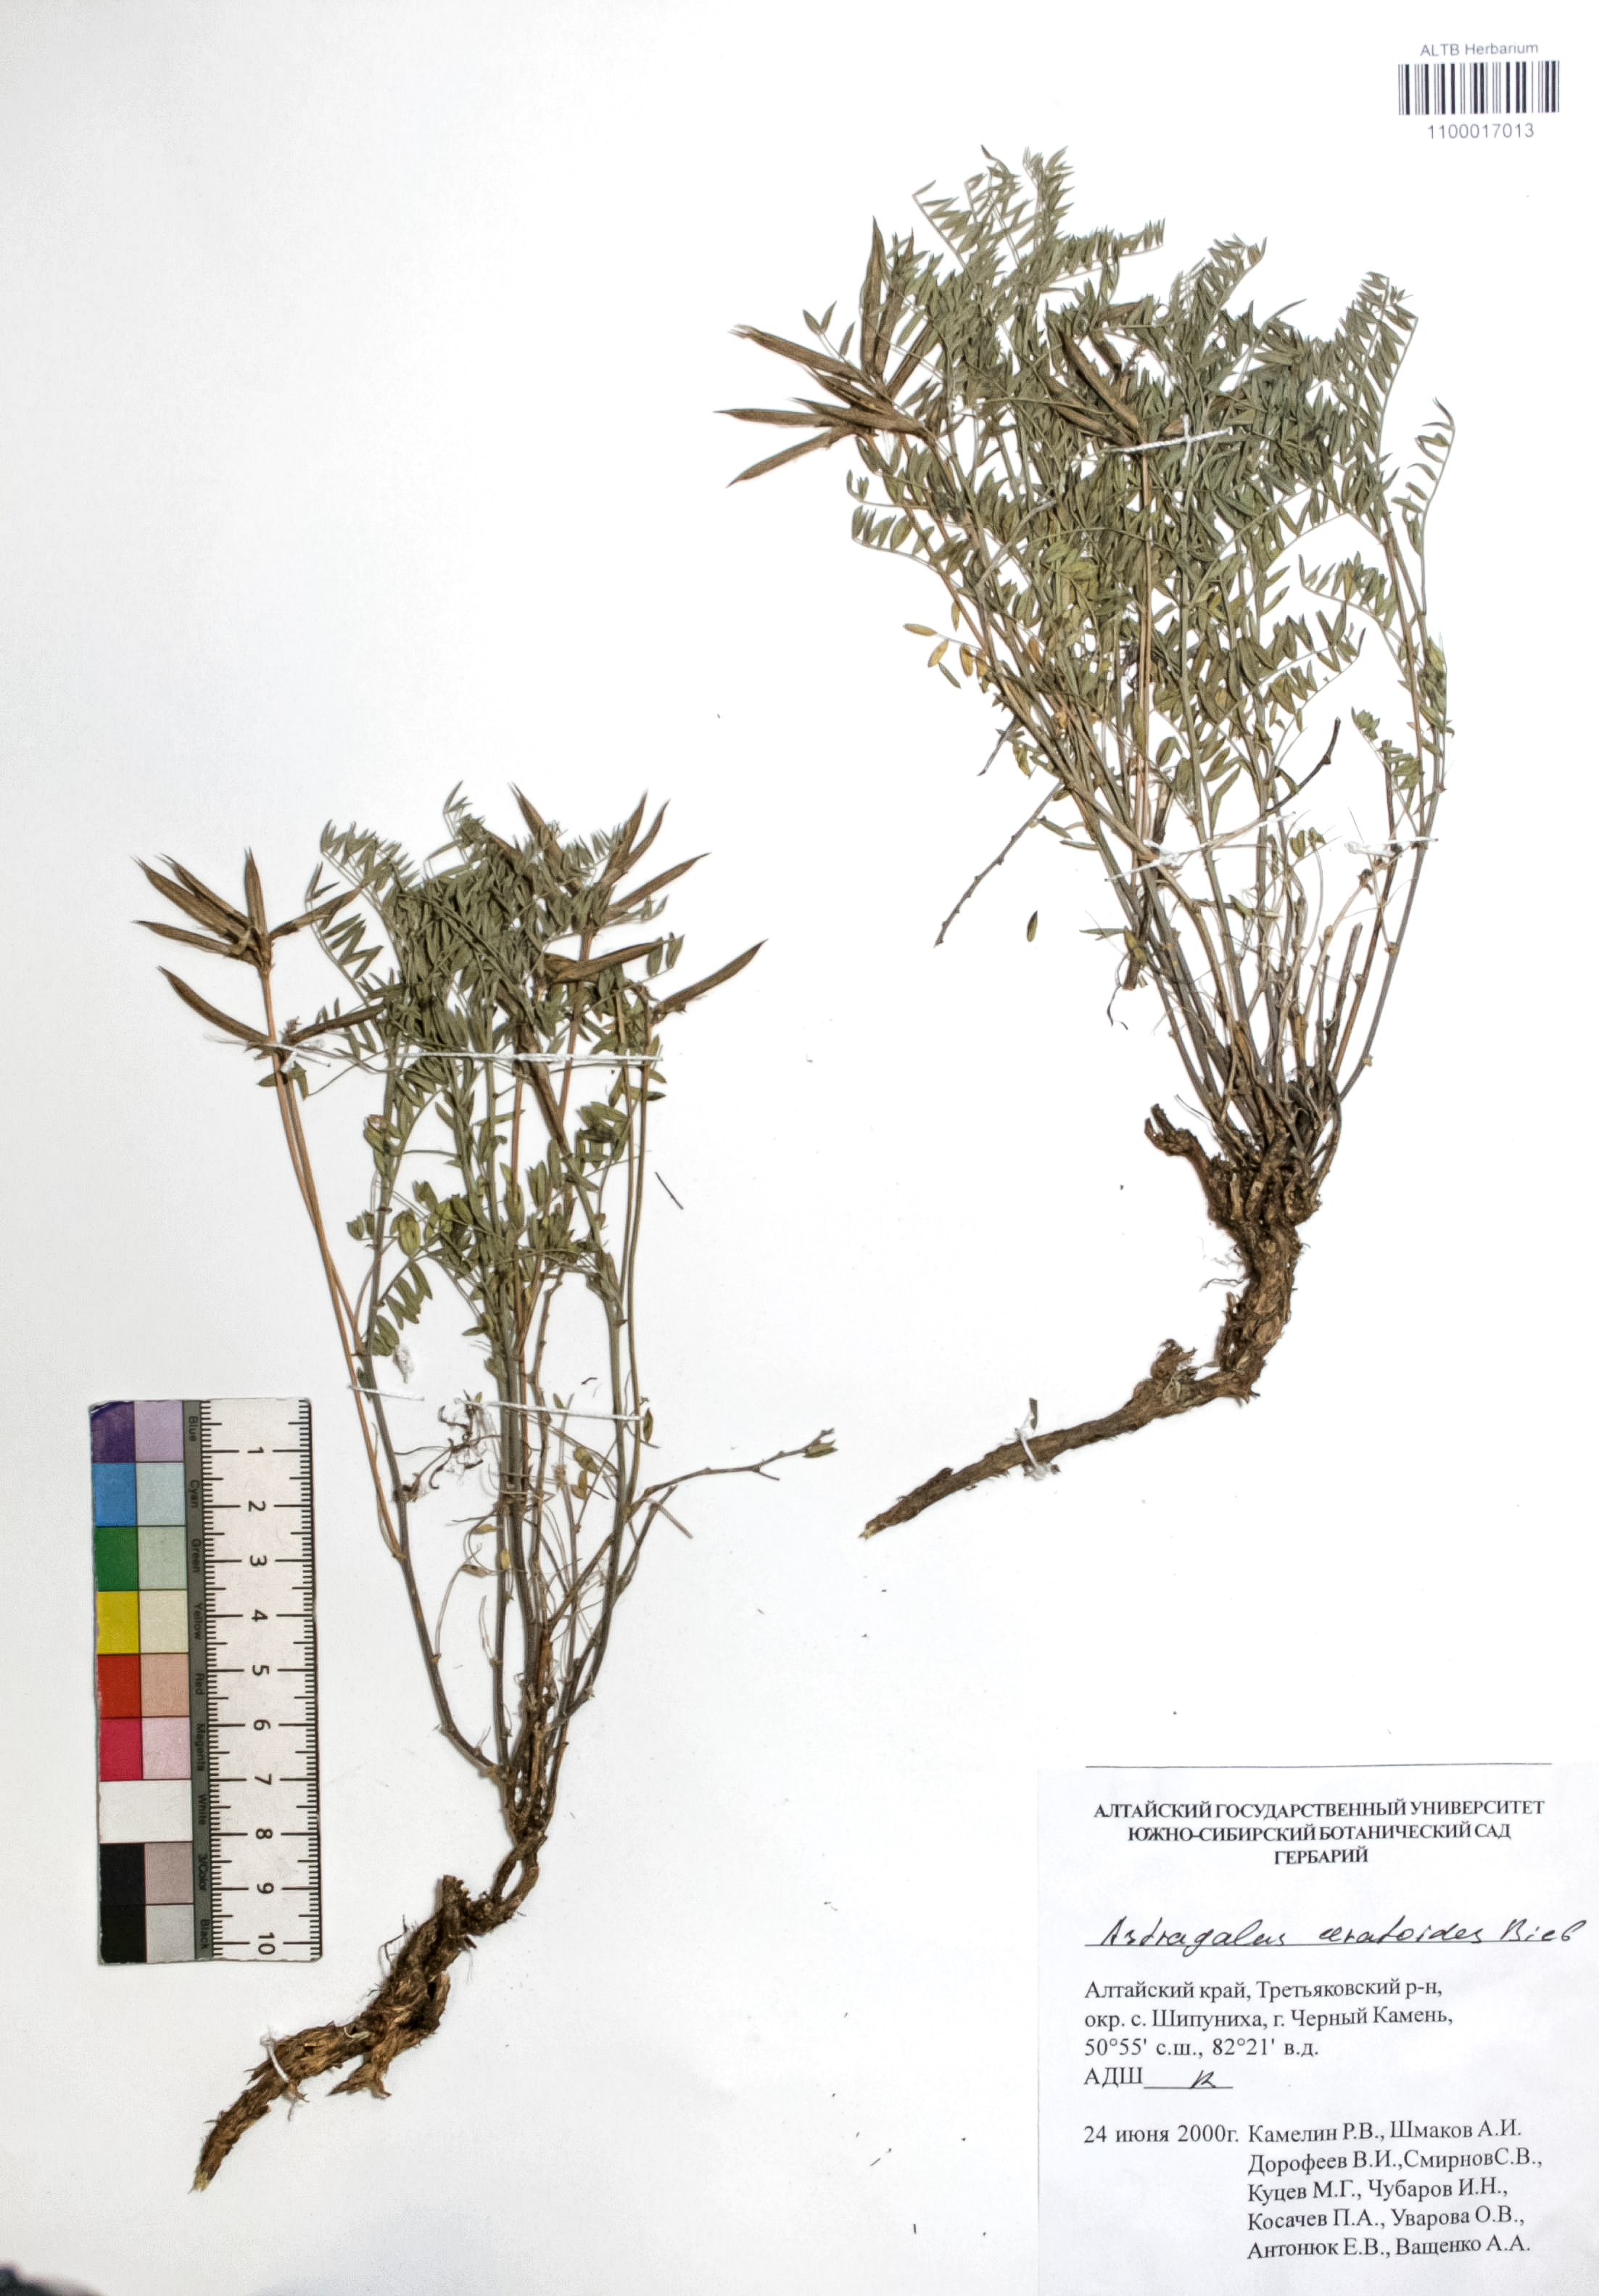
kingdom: Plantae
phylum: Tracheophyta
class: Magnoliopsida
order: Fabales
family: Fabaceae
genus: Astragalus
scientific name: Astragalus ceratoides
